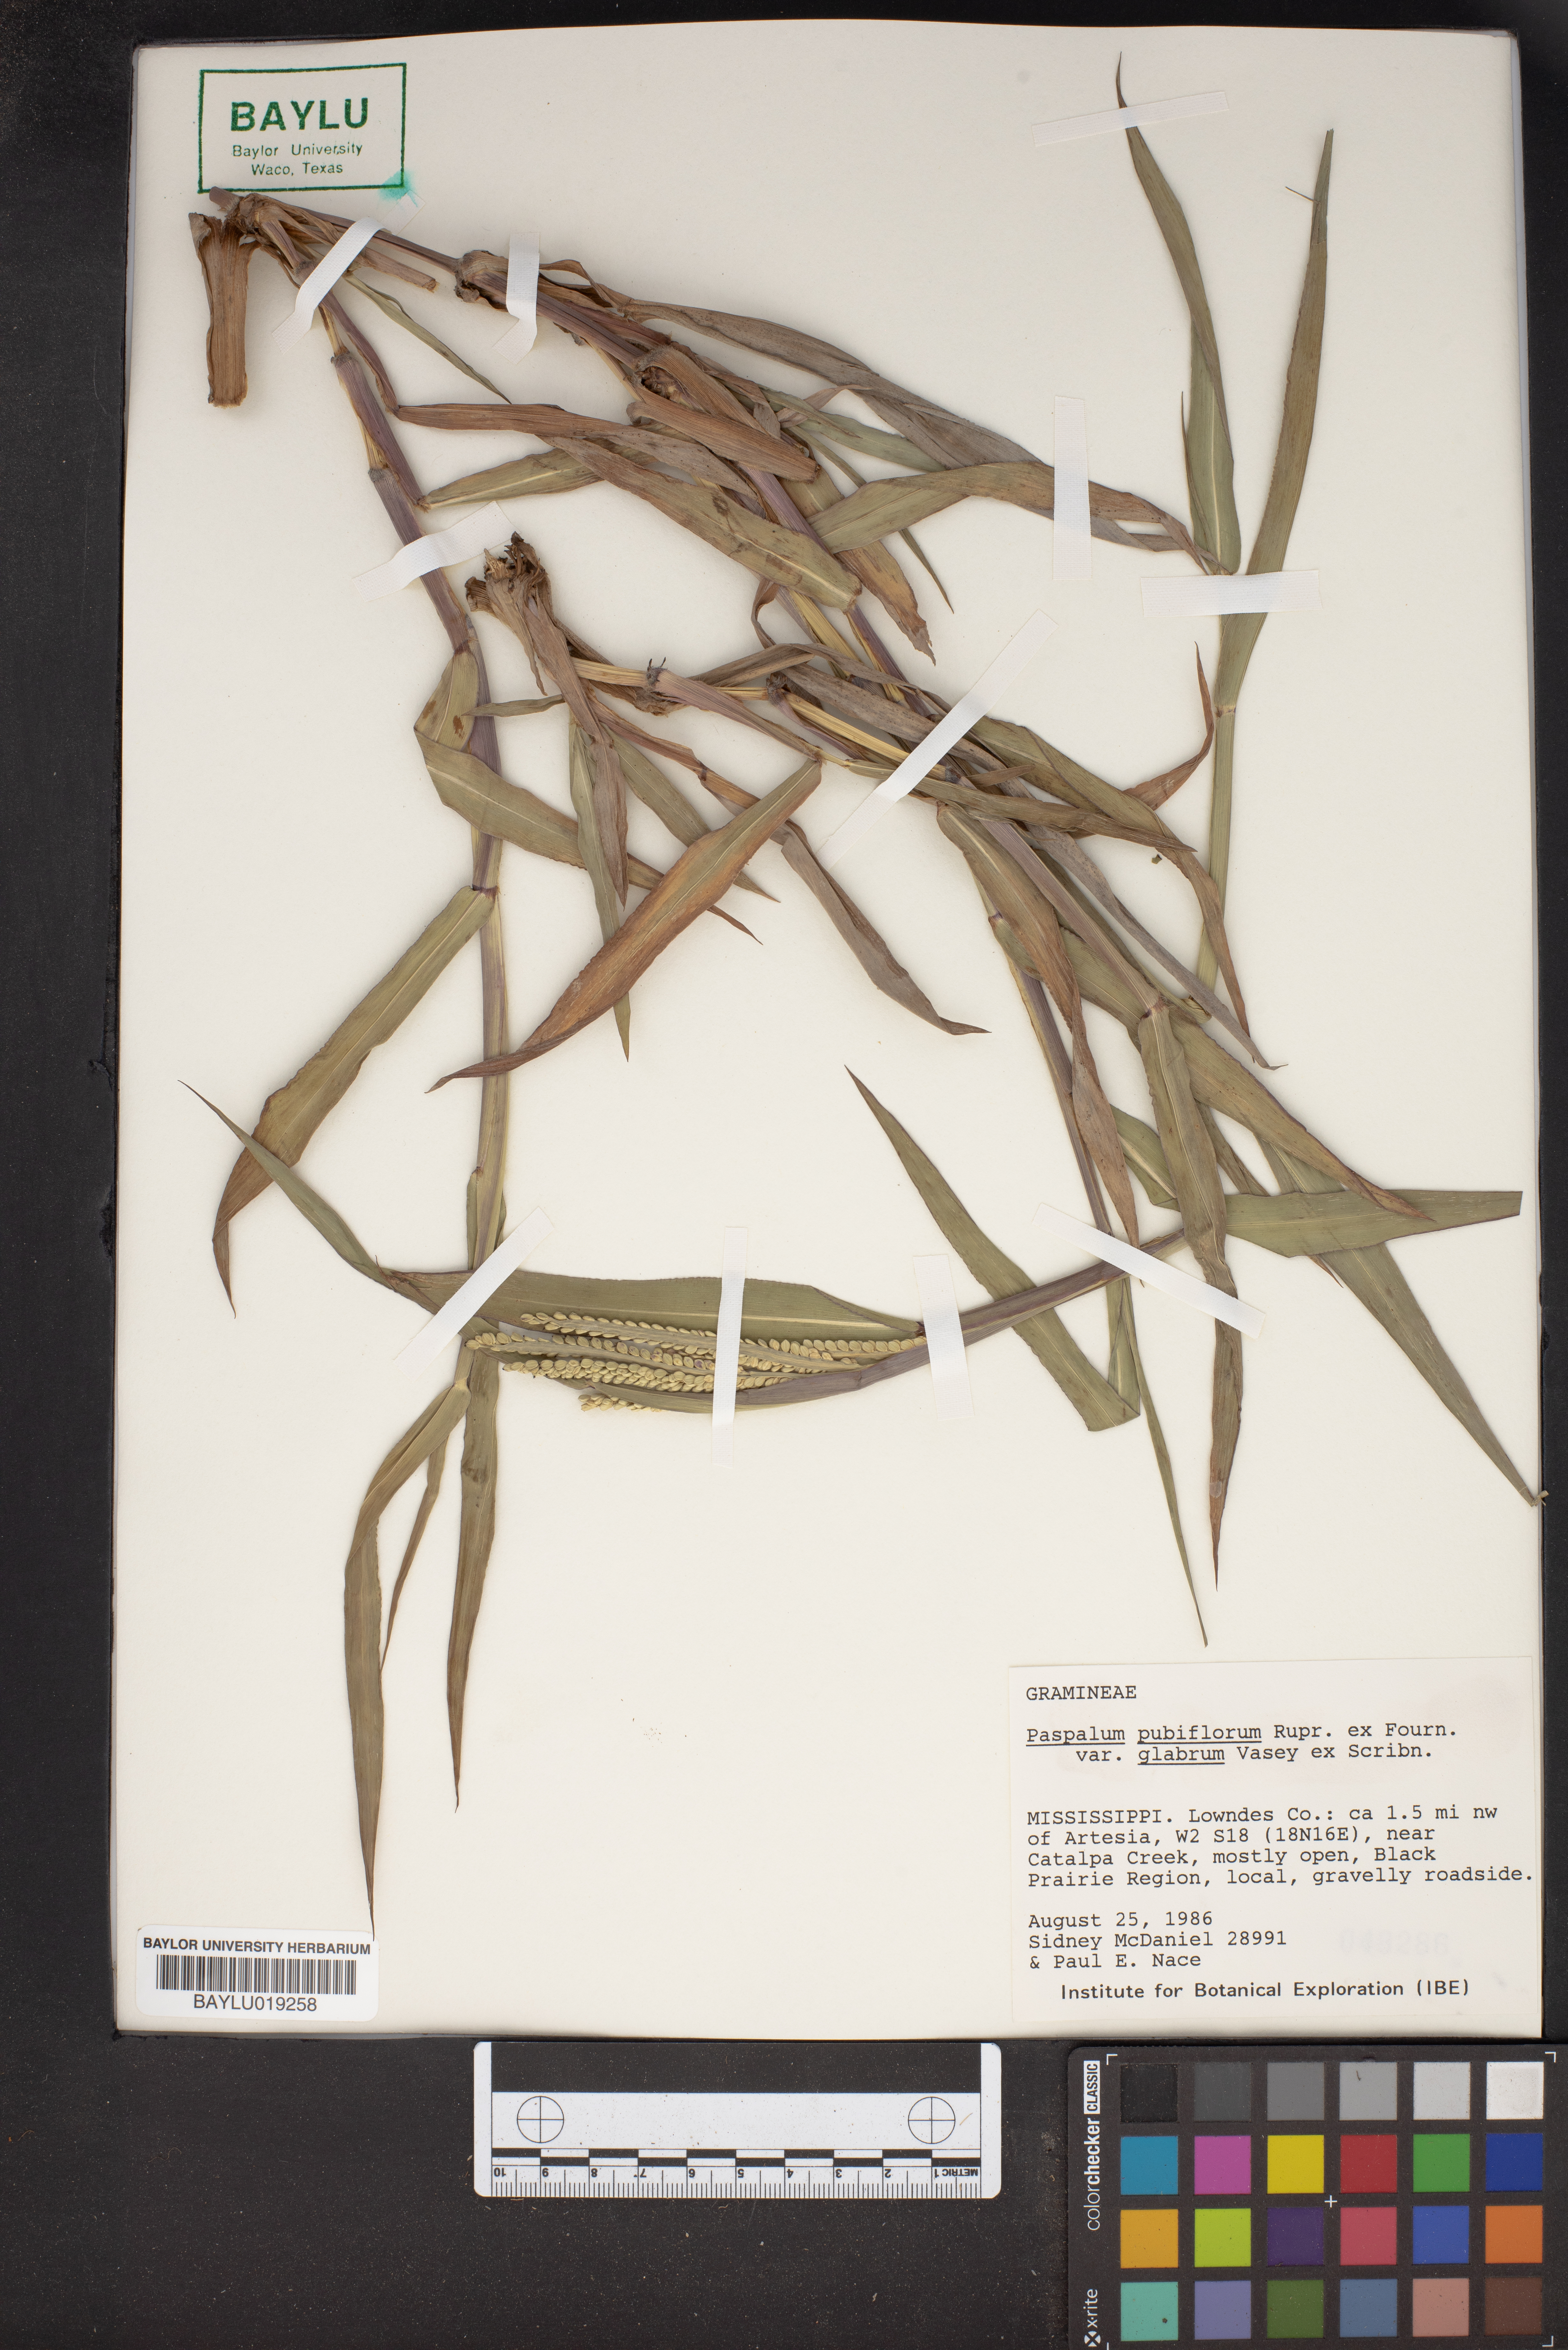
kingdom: Plantae
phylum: Tracheophyta
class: Liliopsida
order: Poales
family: Poaceae
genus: Paspalum
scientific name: Paspalum pubiflorum
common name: Hairy-seed paspalum
